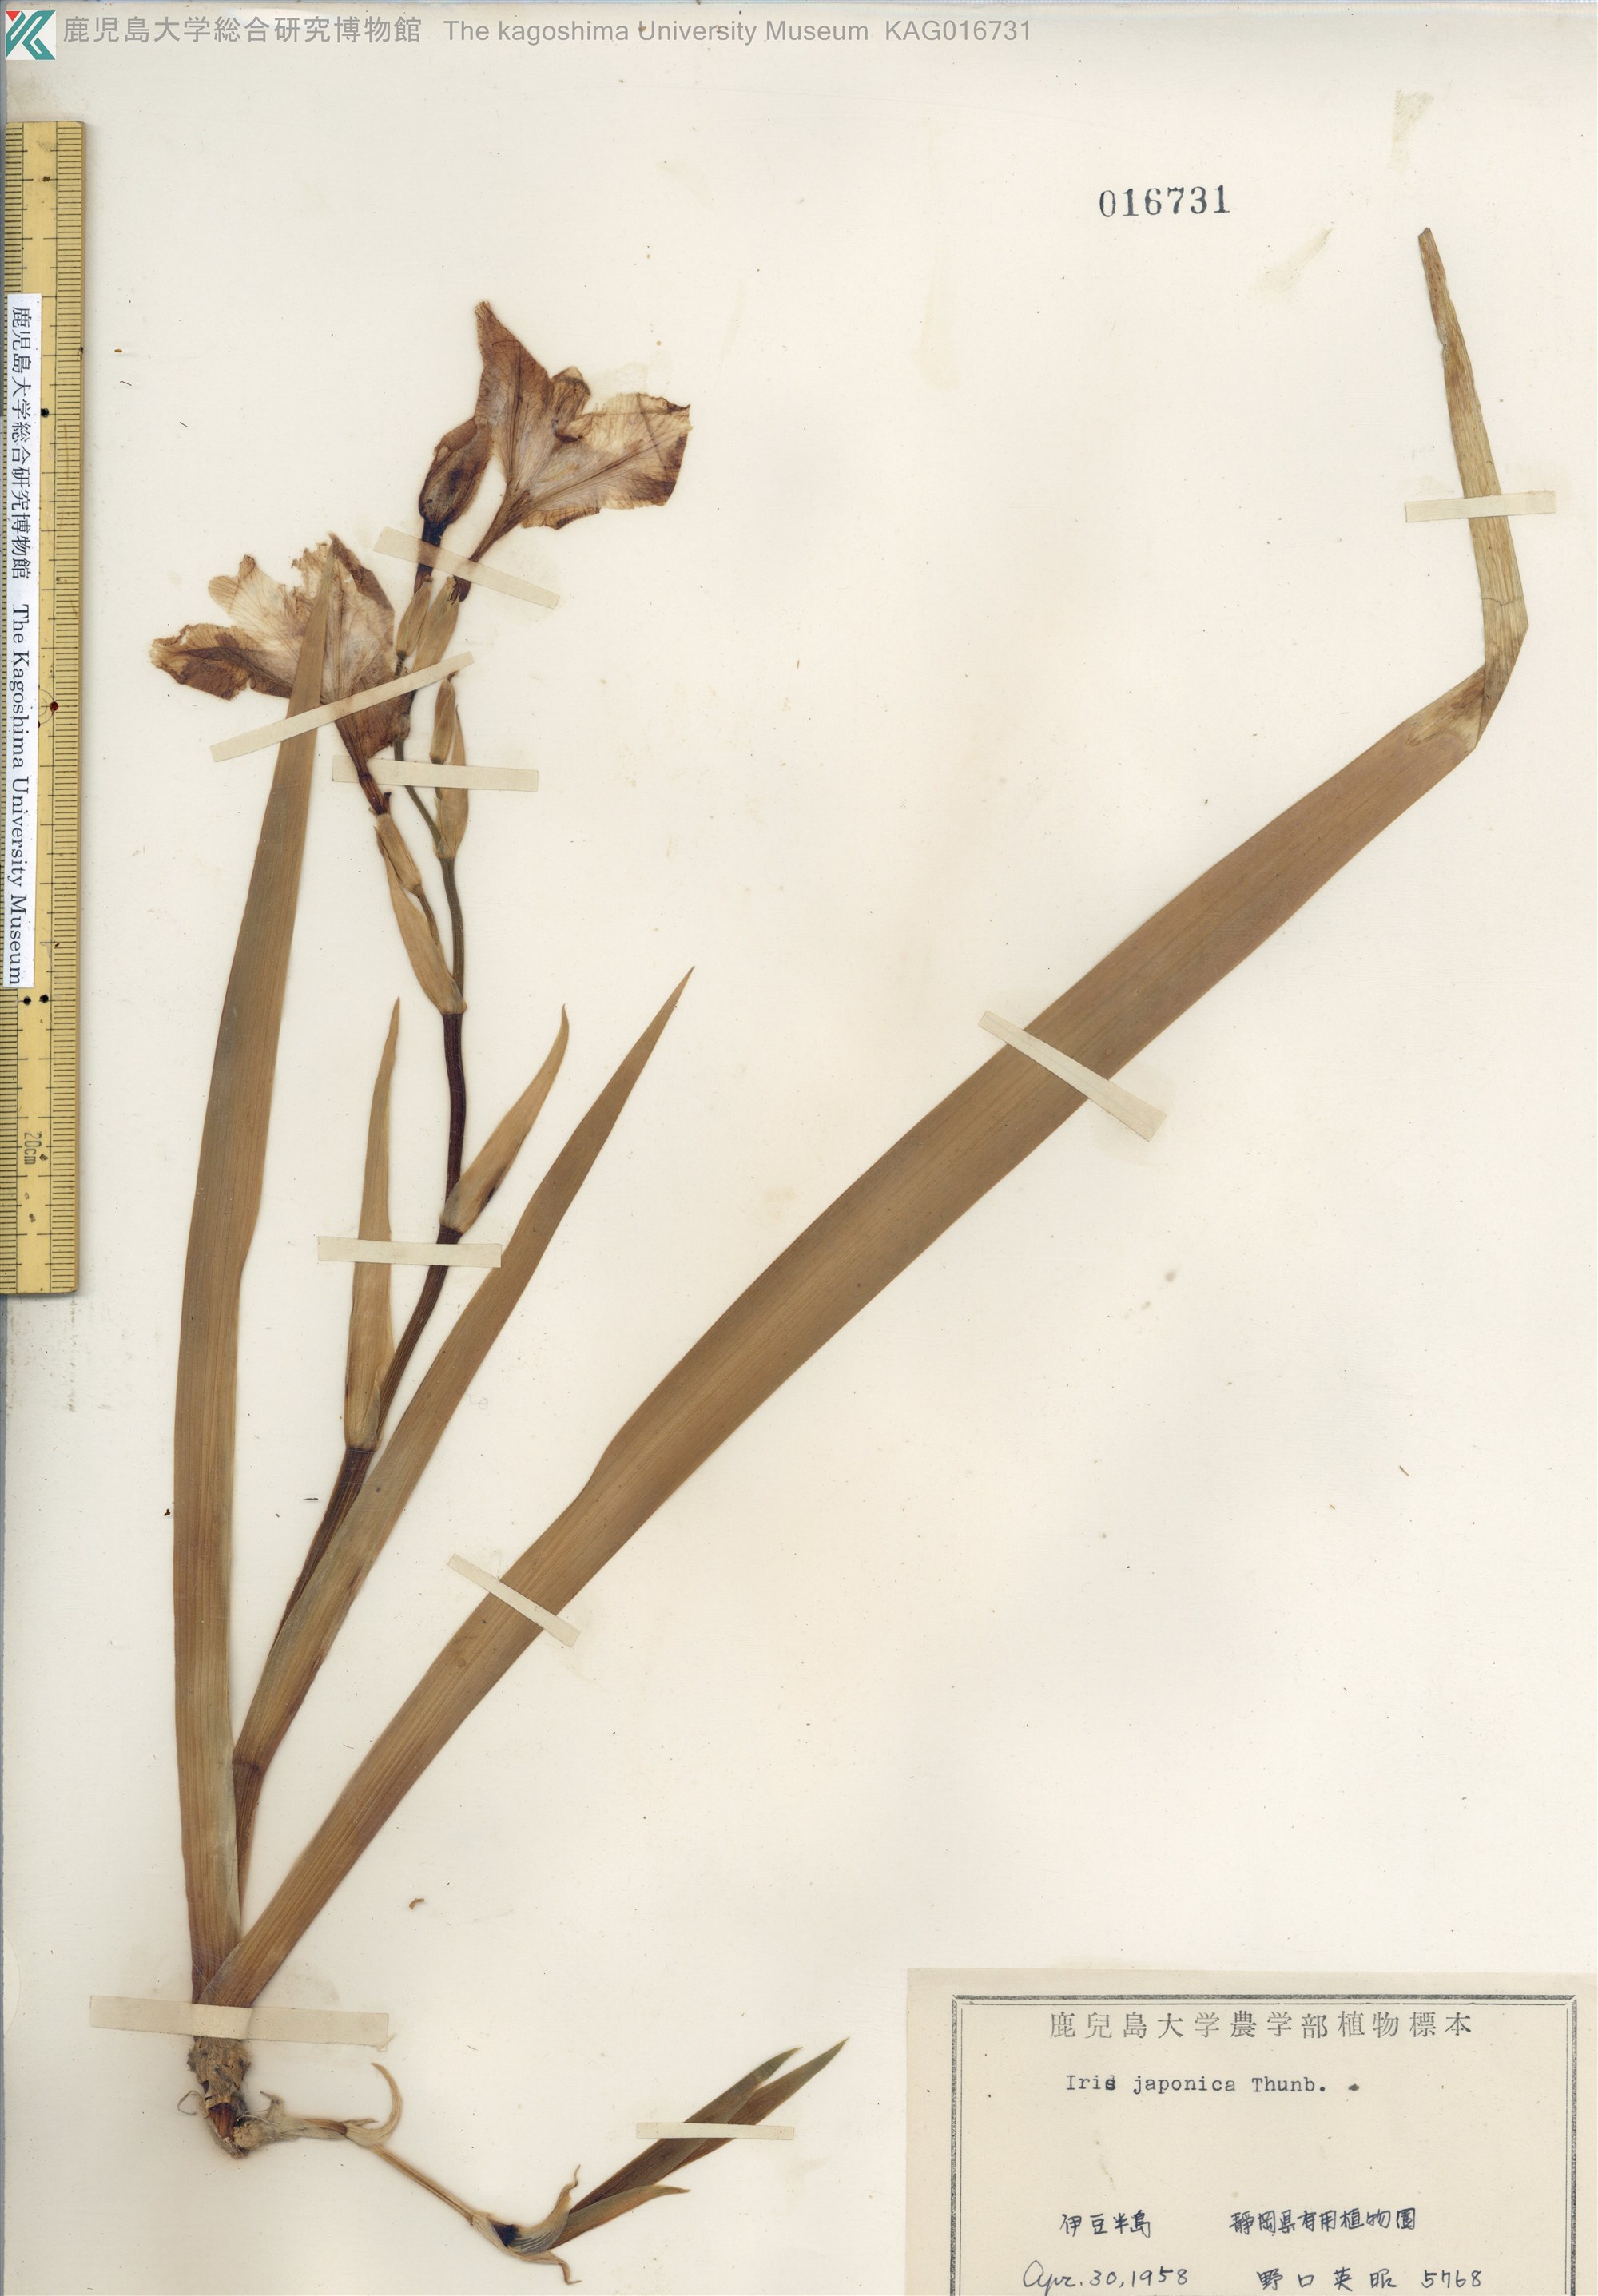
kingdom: Plantae
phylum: Tracheophyta
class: Liliopsida
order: Asparagales
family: Iridaceae
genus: Iris
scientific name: Iris japonica
